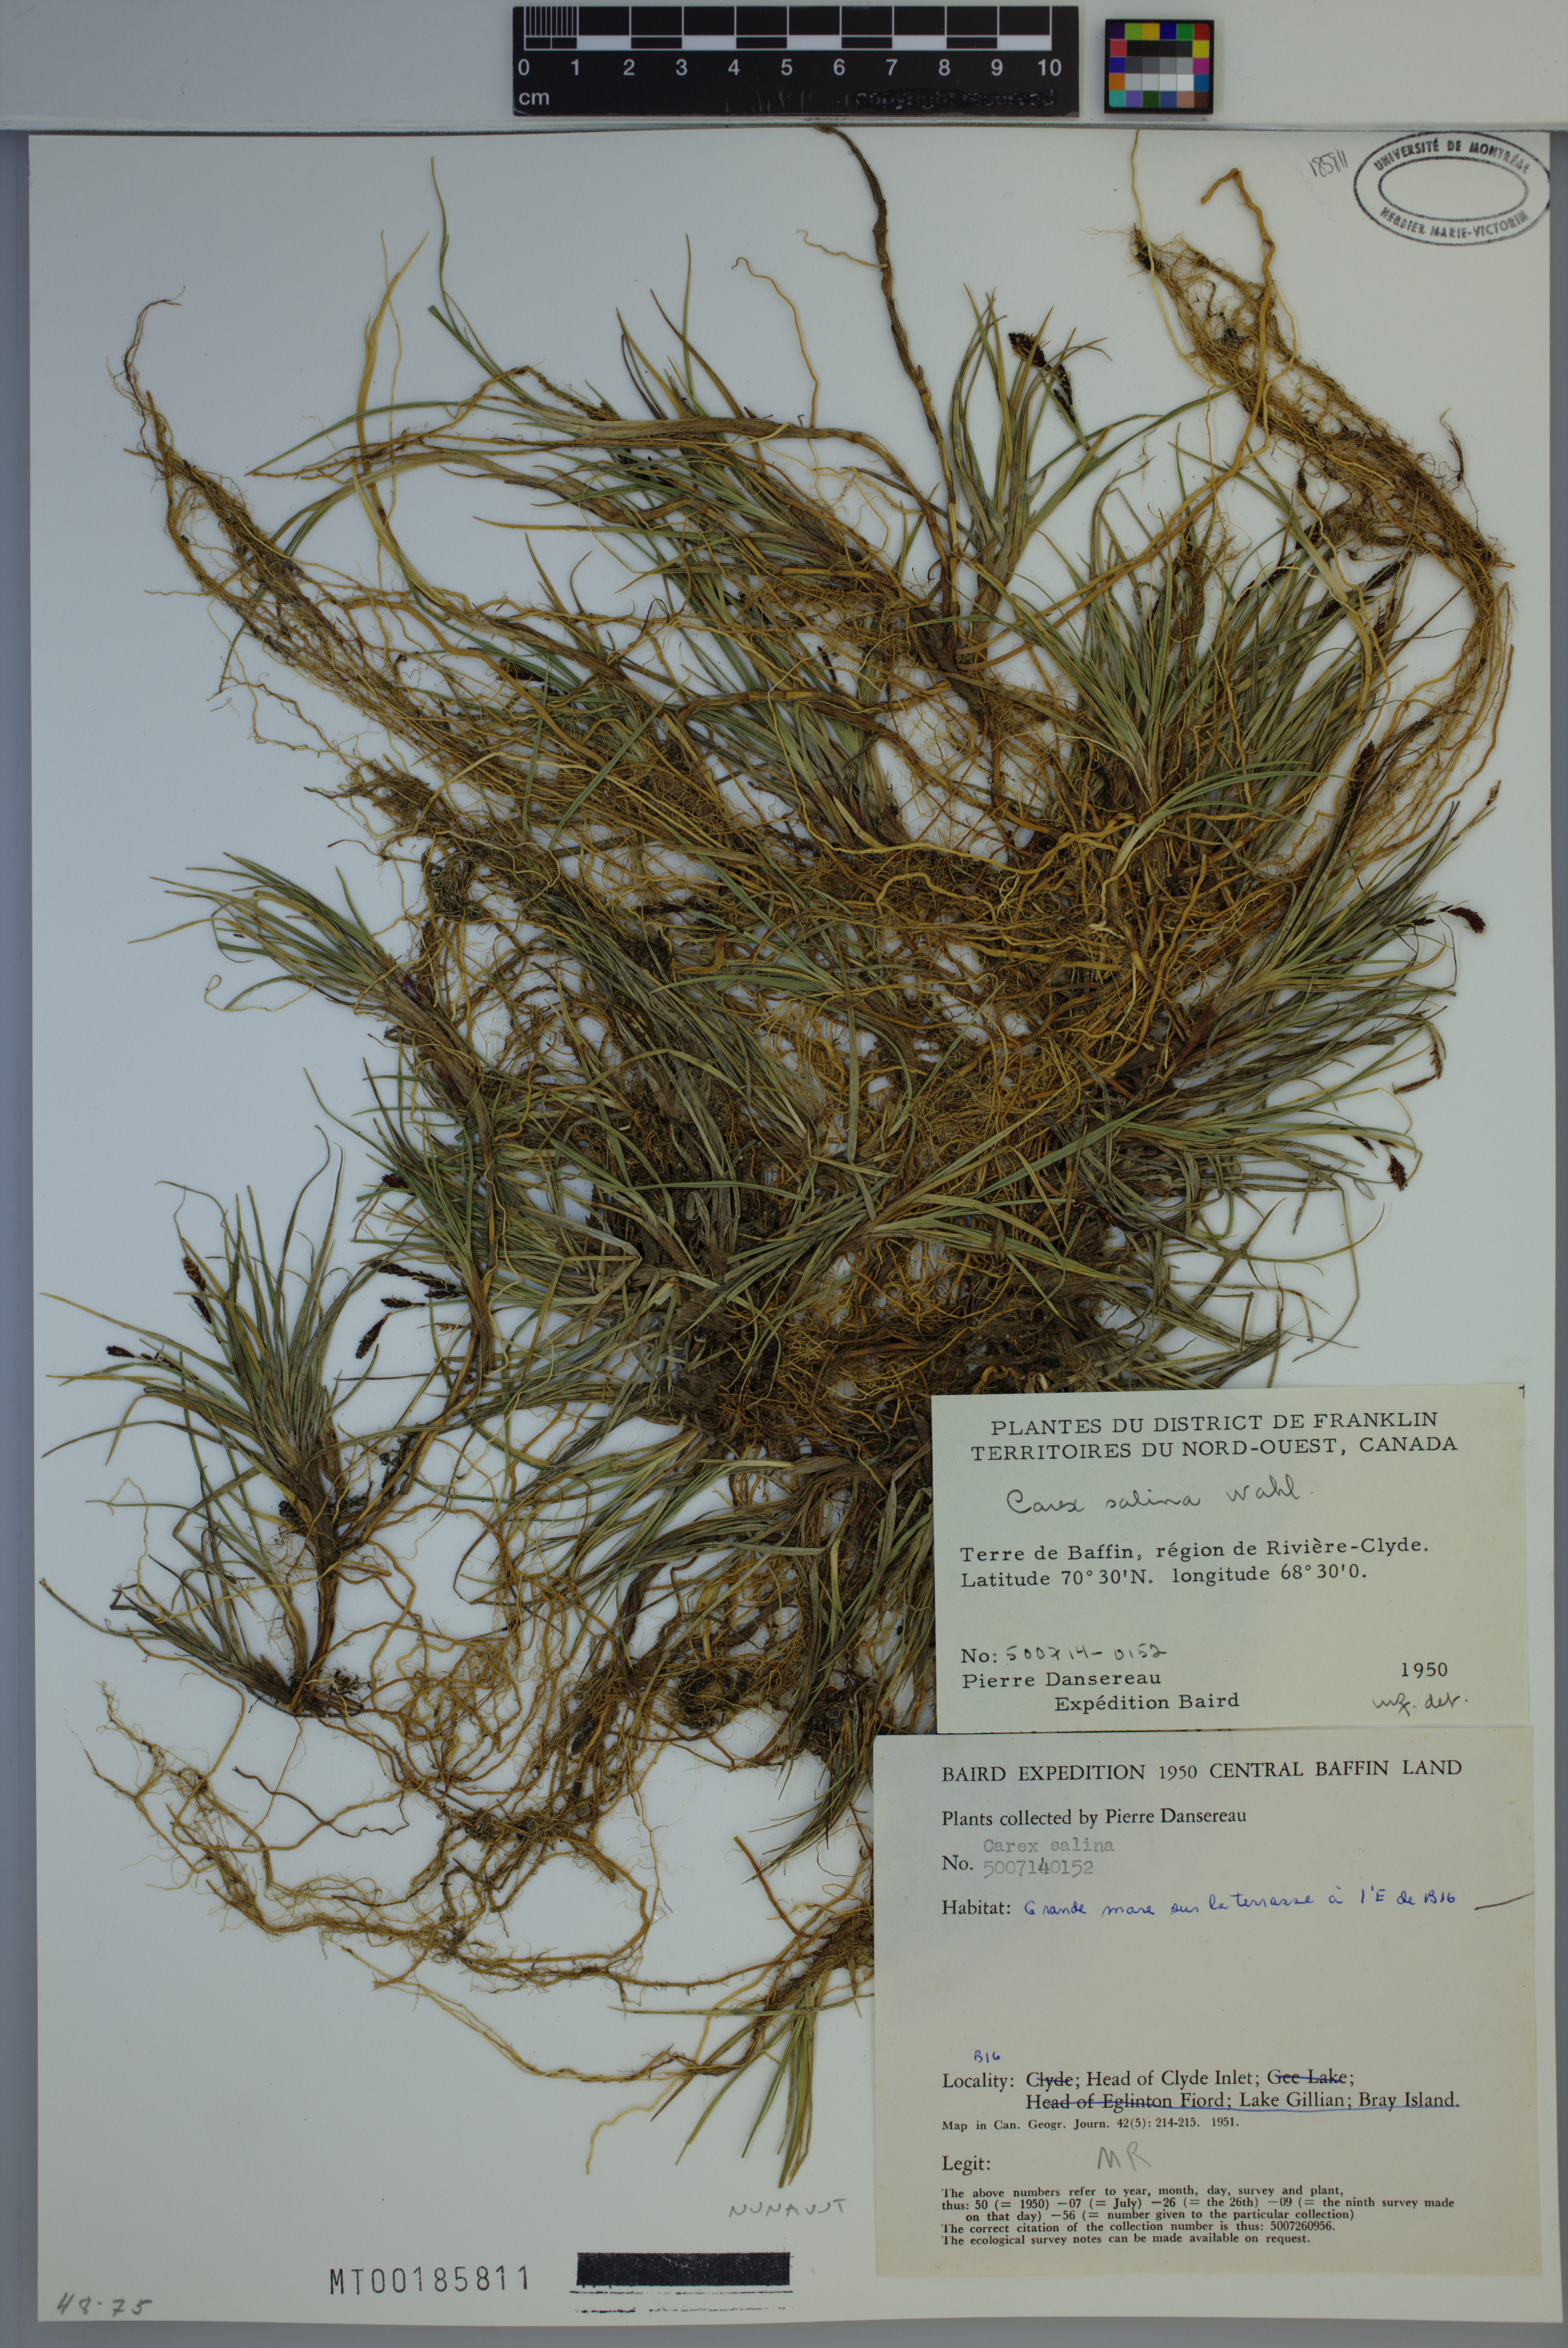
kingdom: Plantae
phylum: Tracheophyta
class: Liliopsida
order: Poales
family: Cyperaceae
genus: Carex
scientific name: Carex salina
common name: Saltmarsh sedge
